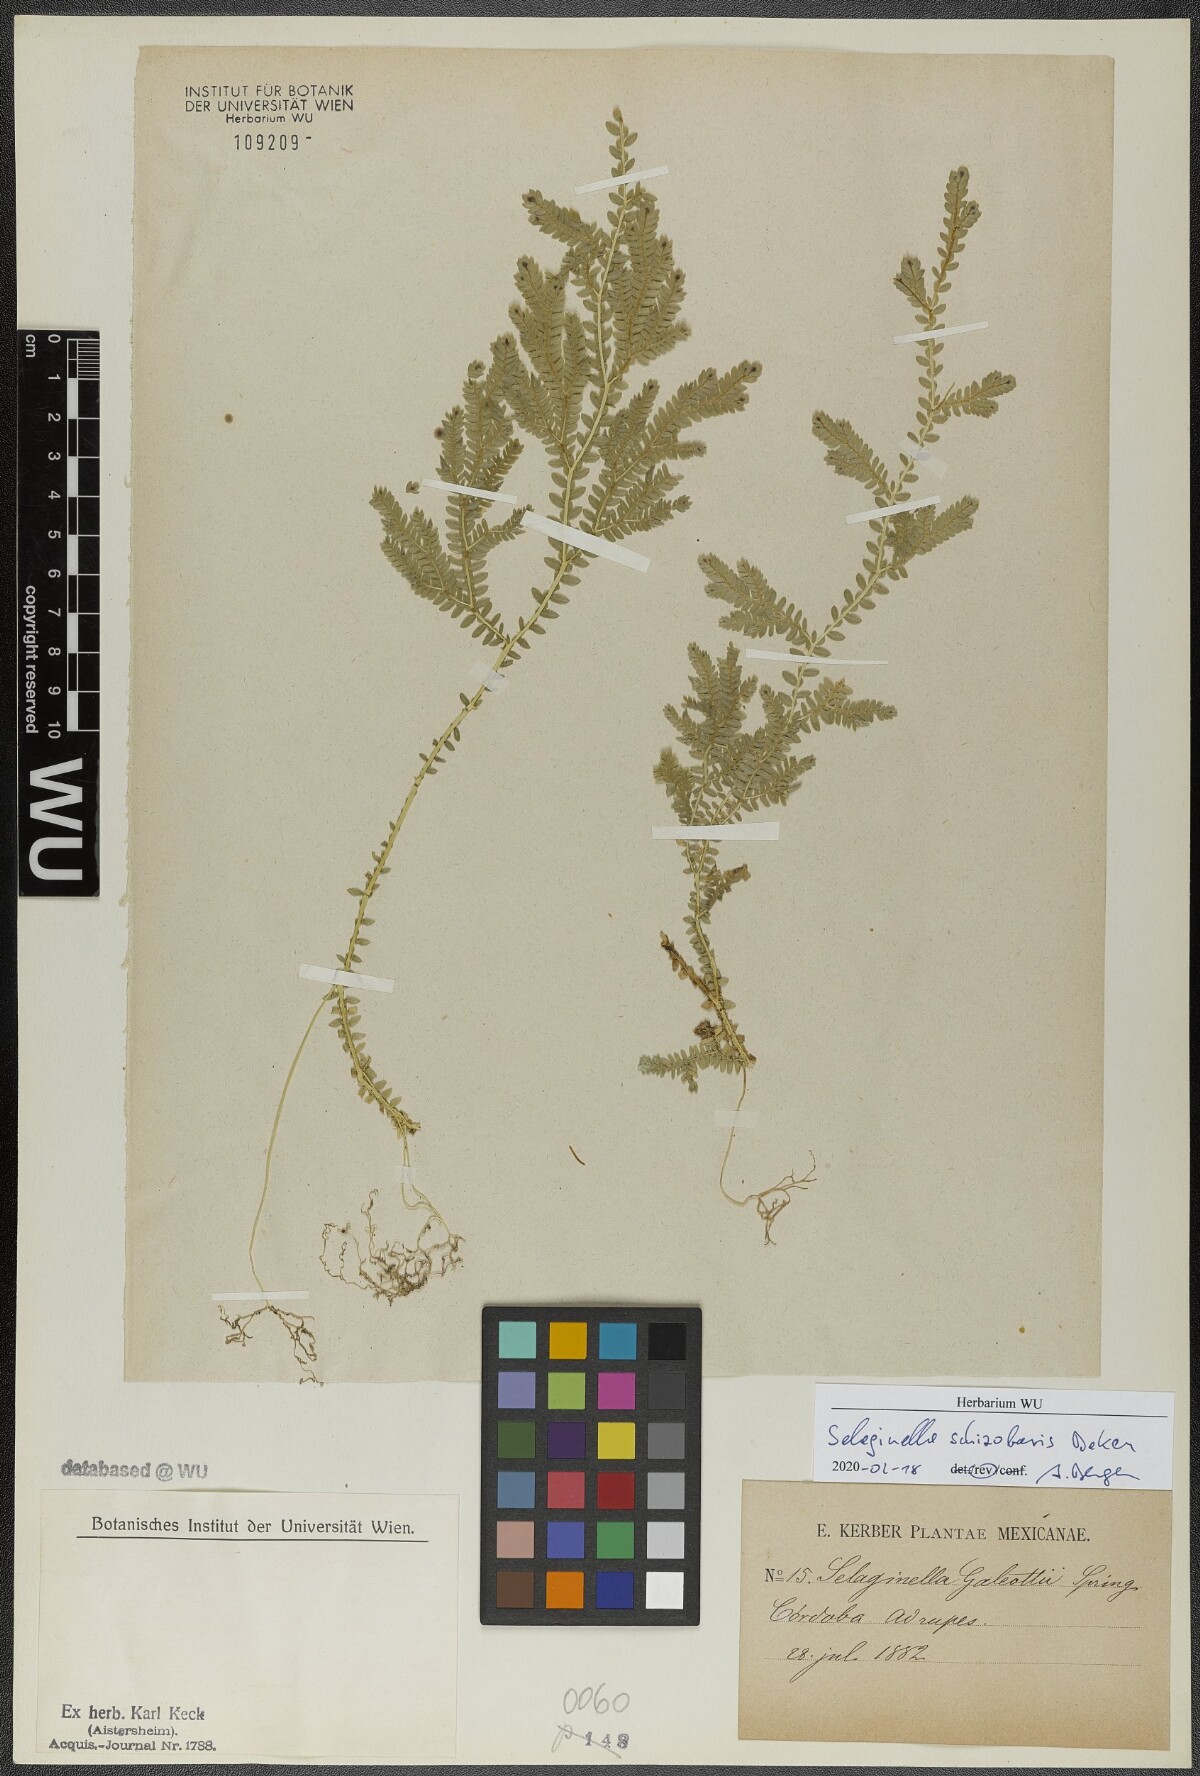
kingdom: Plantae
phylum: Tracheophyta
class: Lycopodiopsida
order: Selaginellales
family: Selaginellaceae
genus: Selaginella
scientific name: Selaginella schizobasis
